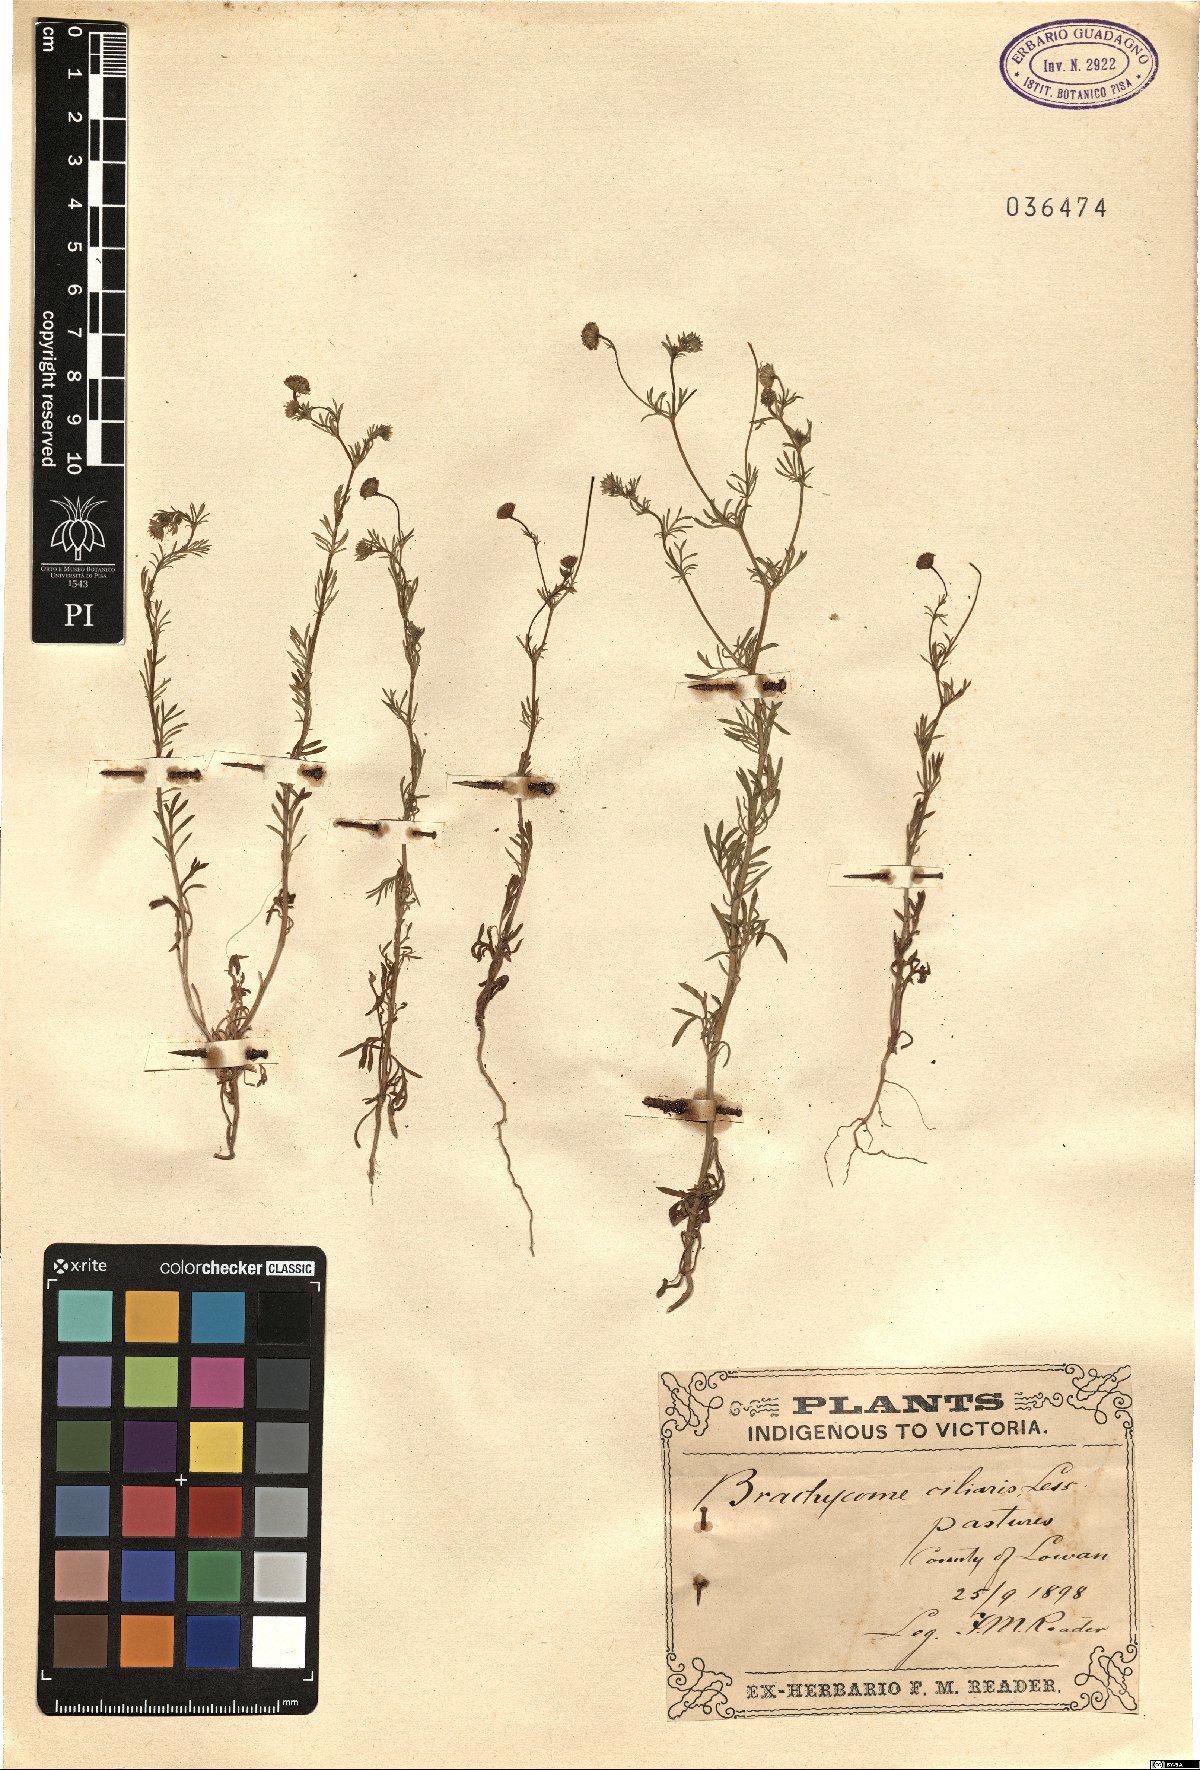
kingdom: Plantae
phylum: Tracheophyta
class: Magnoliopsida
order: Asterales
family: Asteraceae
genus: Brachyscome
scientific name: Brachyscome ciliaris
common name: Variable daisy
